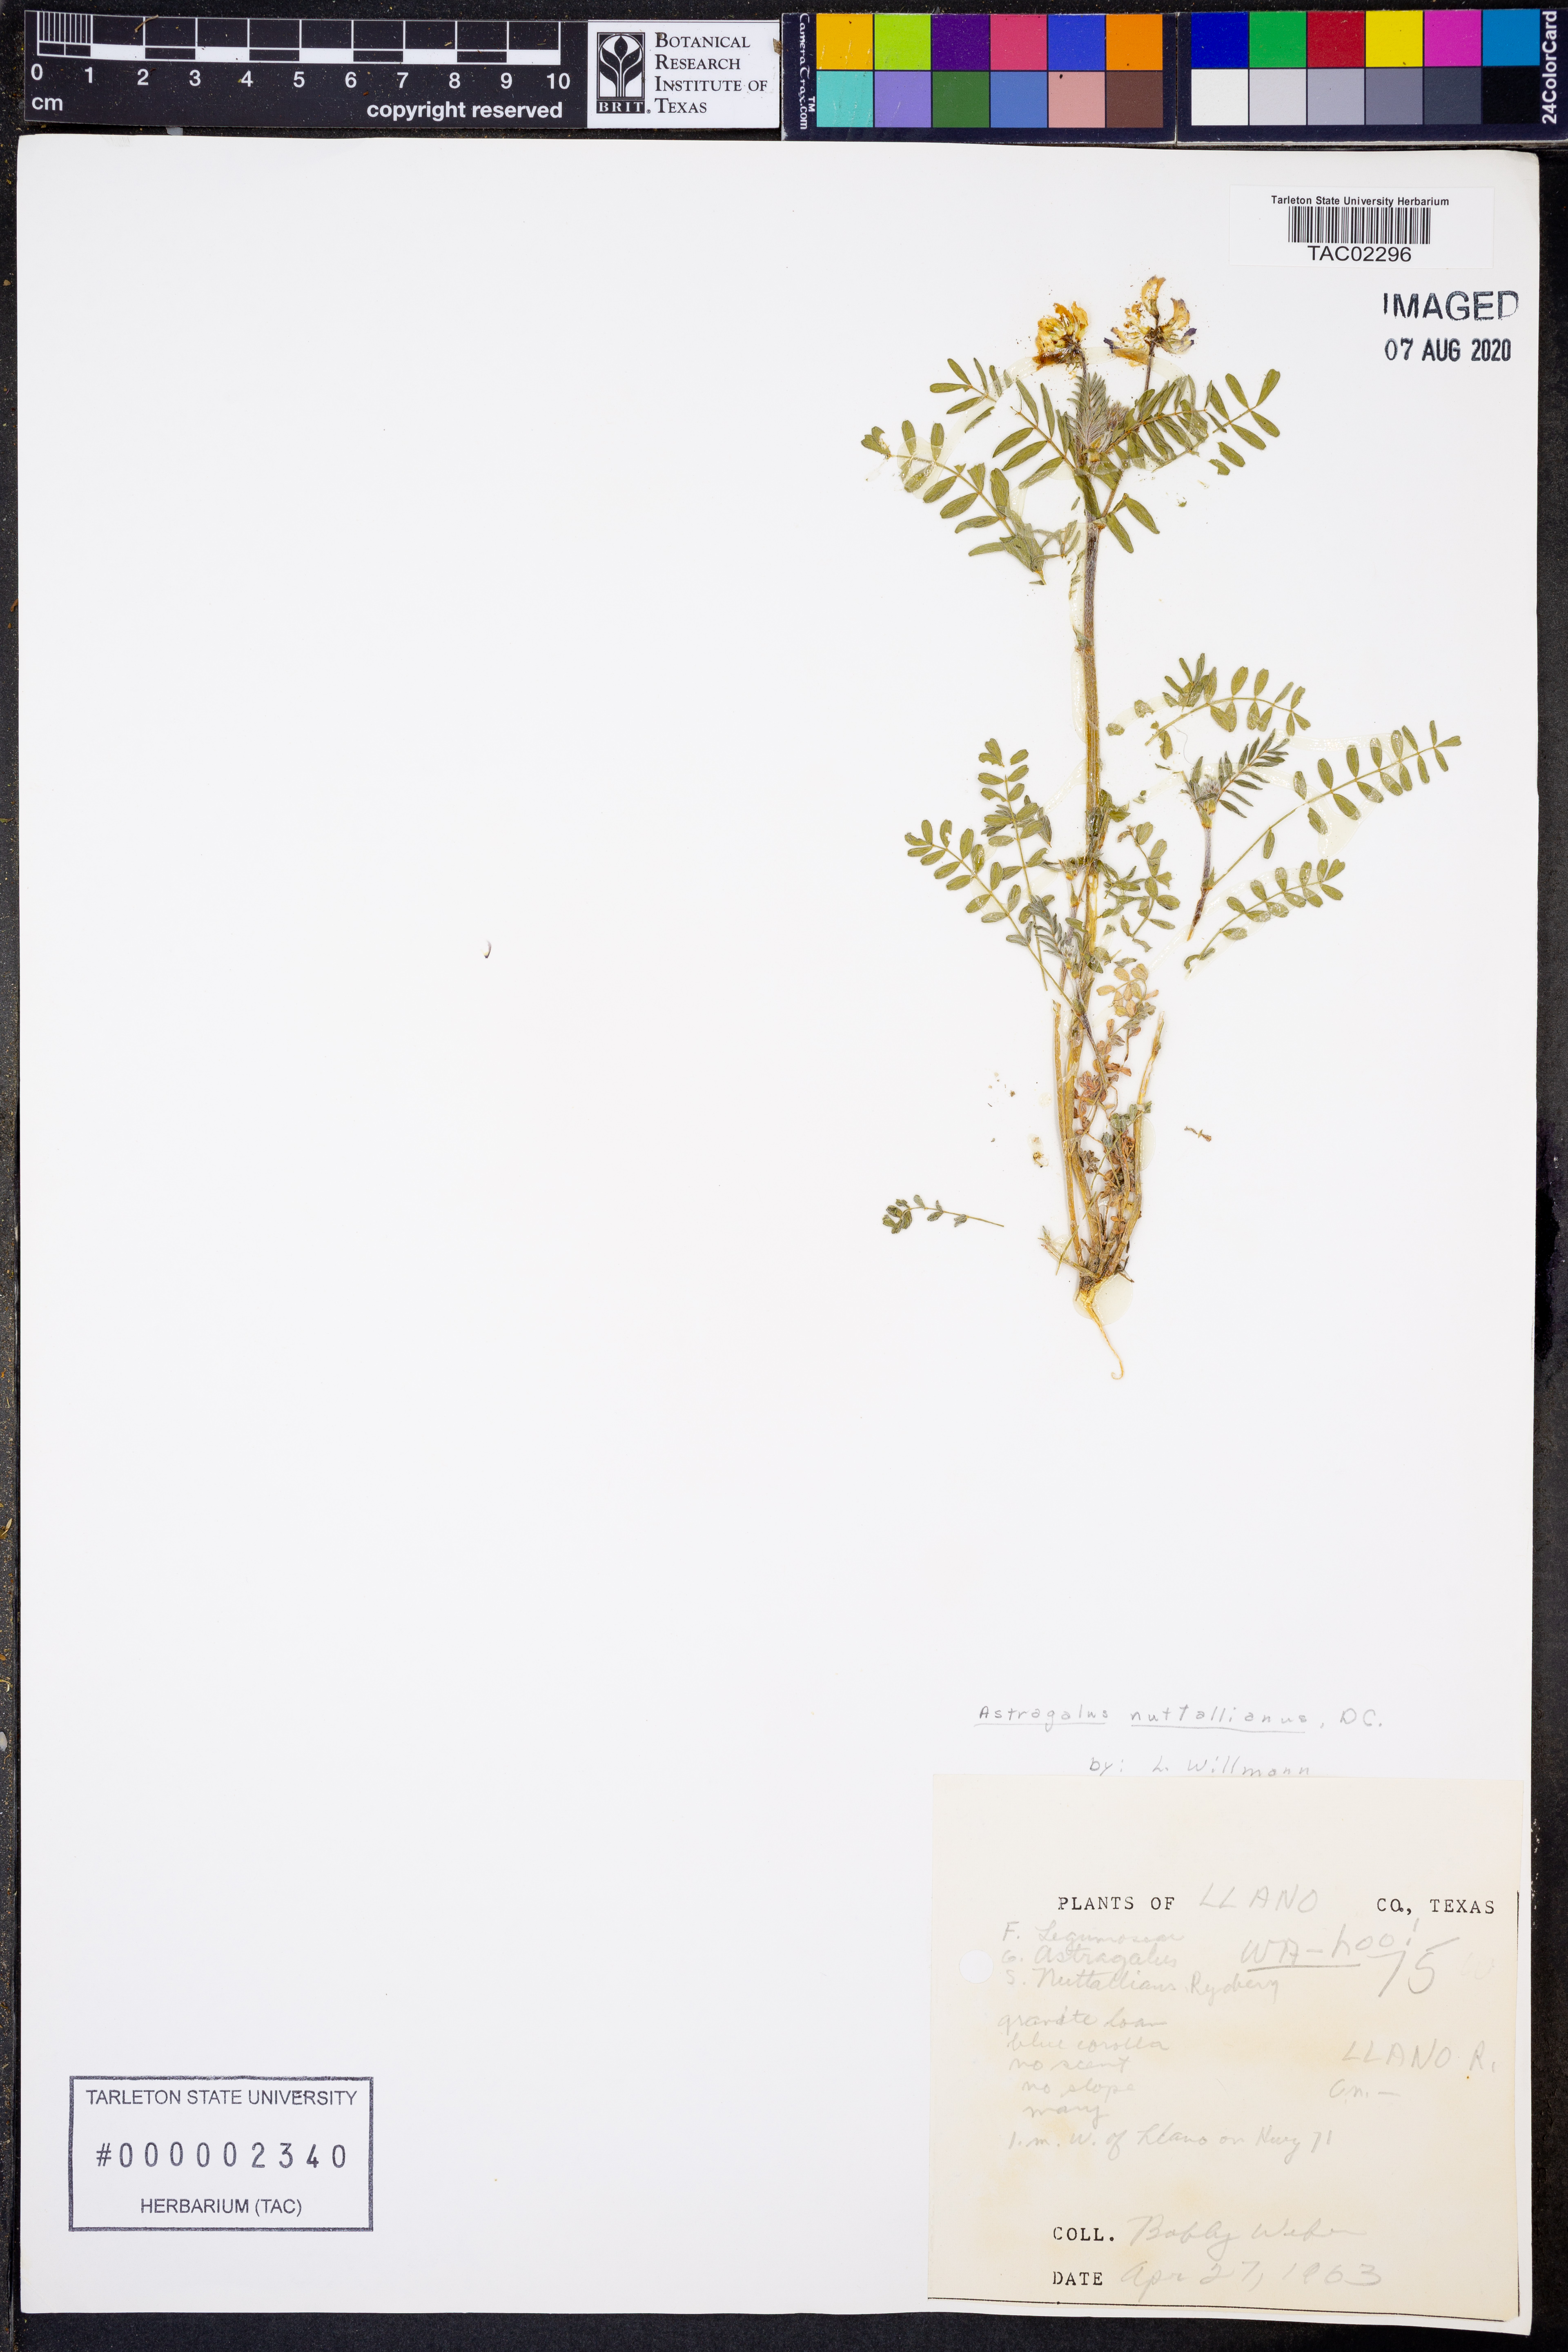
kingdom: Plantae
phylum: Tracheophyta
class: Magnoliopsida
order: Fabales
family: Fabaceae
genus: Astragalus
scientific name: Astragalus nuttallianus
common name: Smallflowered milkvetch
